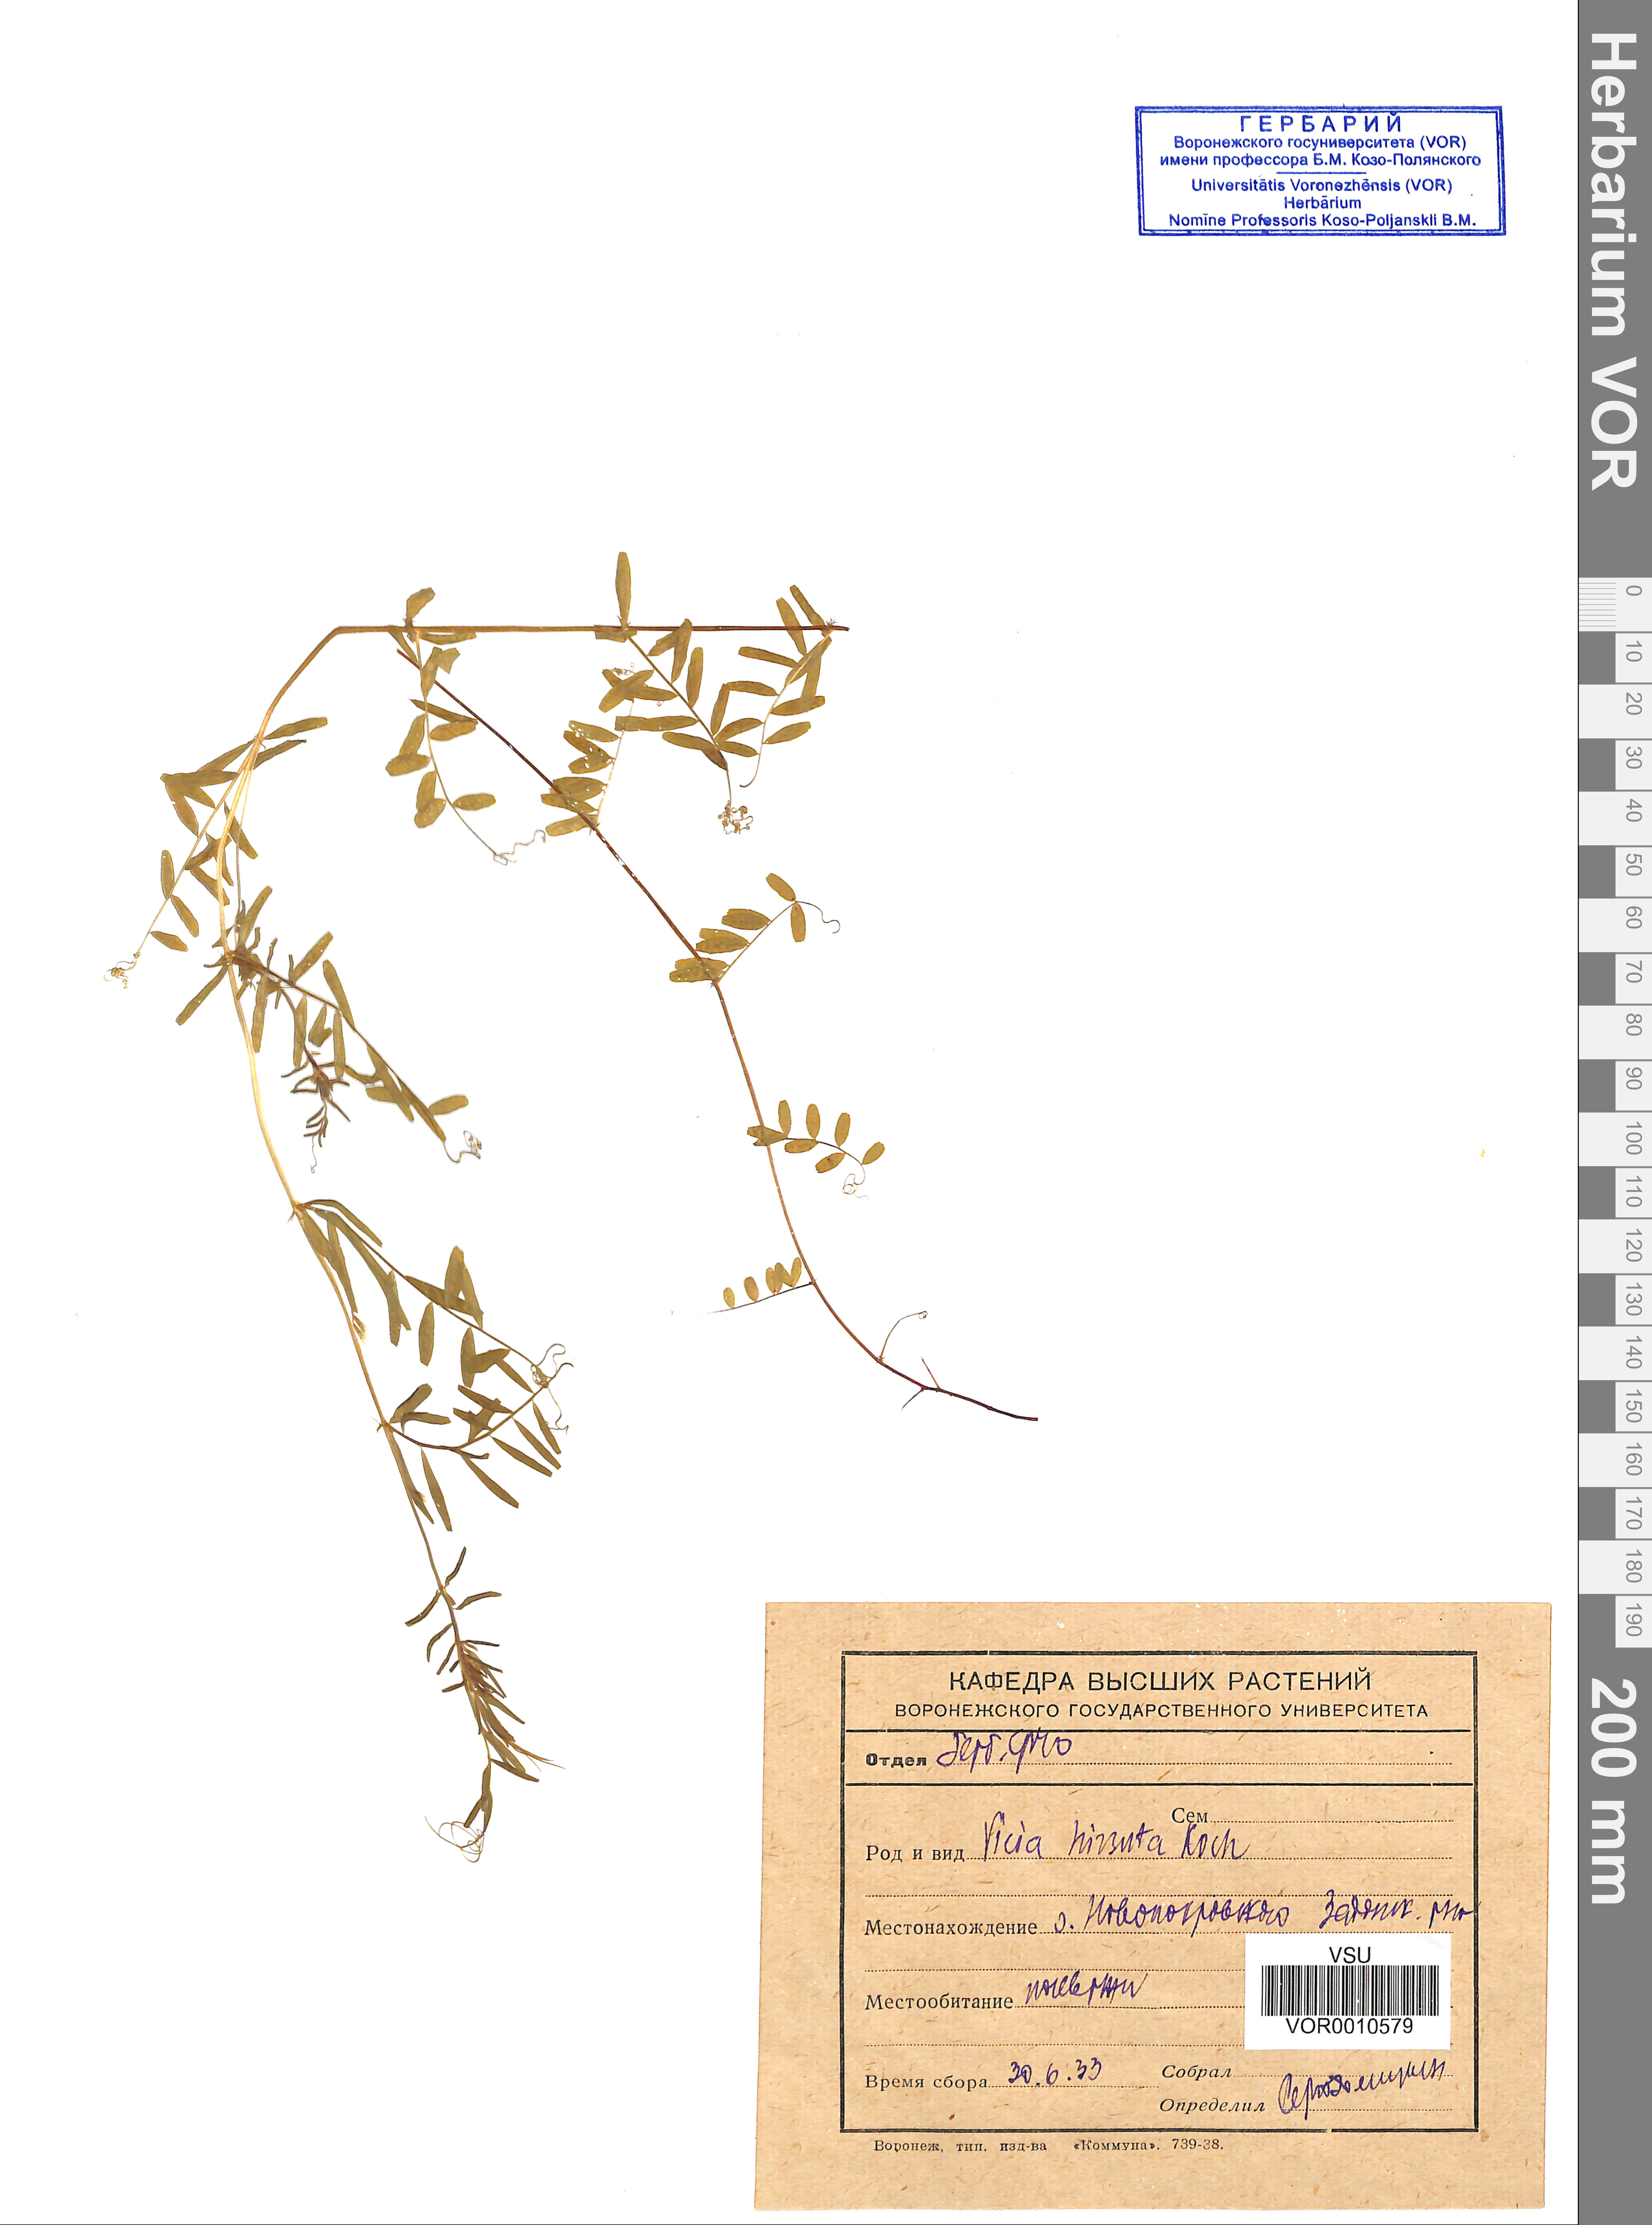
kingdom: Plantae
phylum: Tracheophyta
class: Magnoliopsida
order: Fabales
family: Fabaceae
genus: Vicia
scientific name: Vicia hirsuta
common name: Tiny vetch
